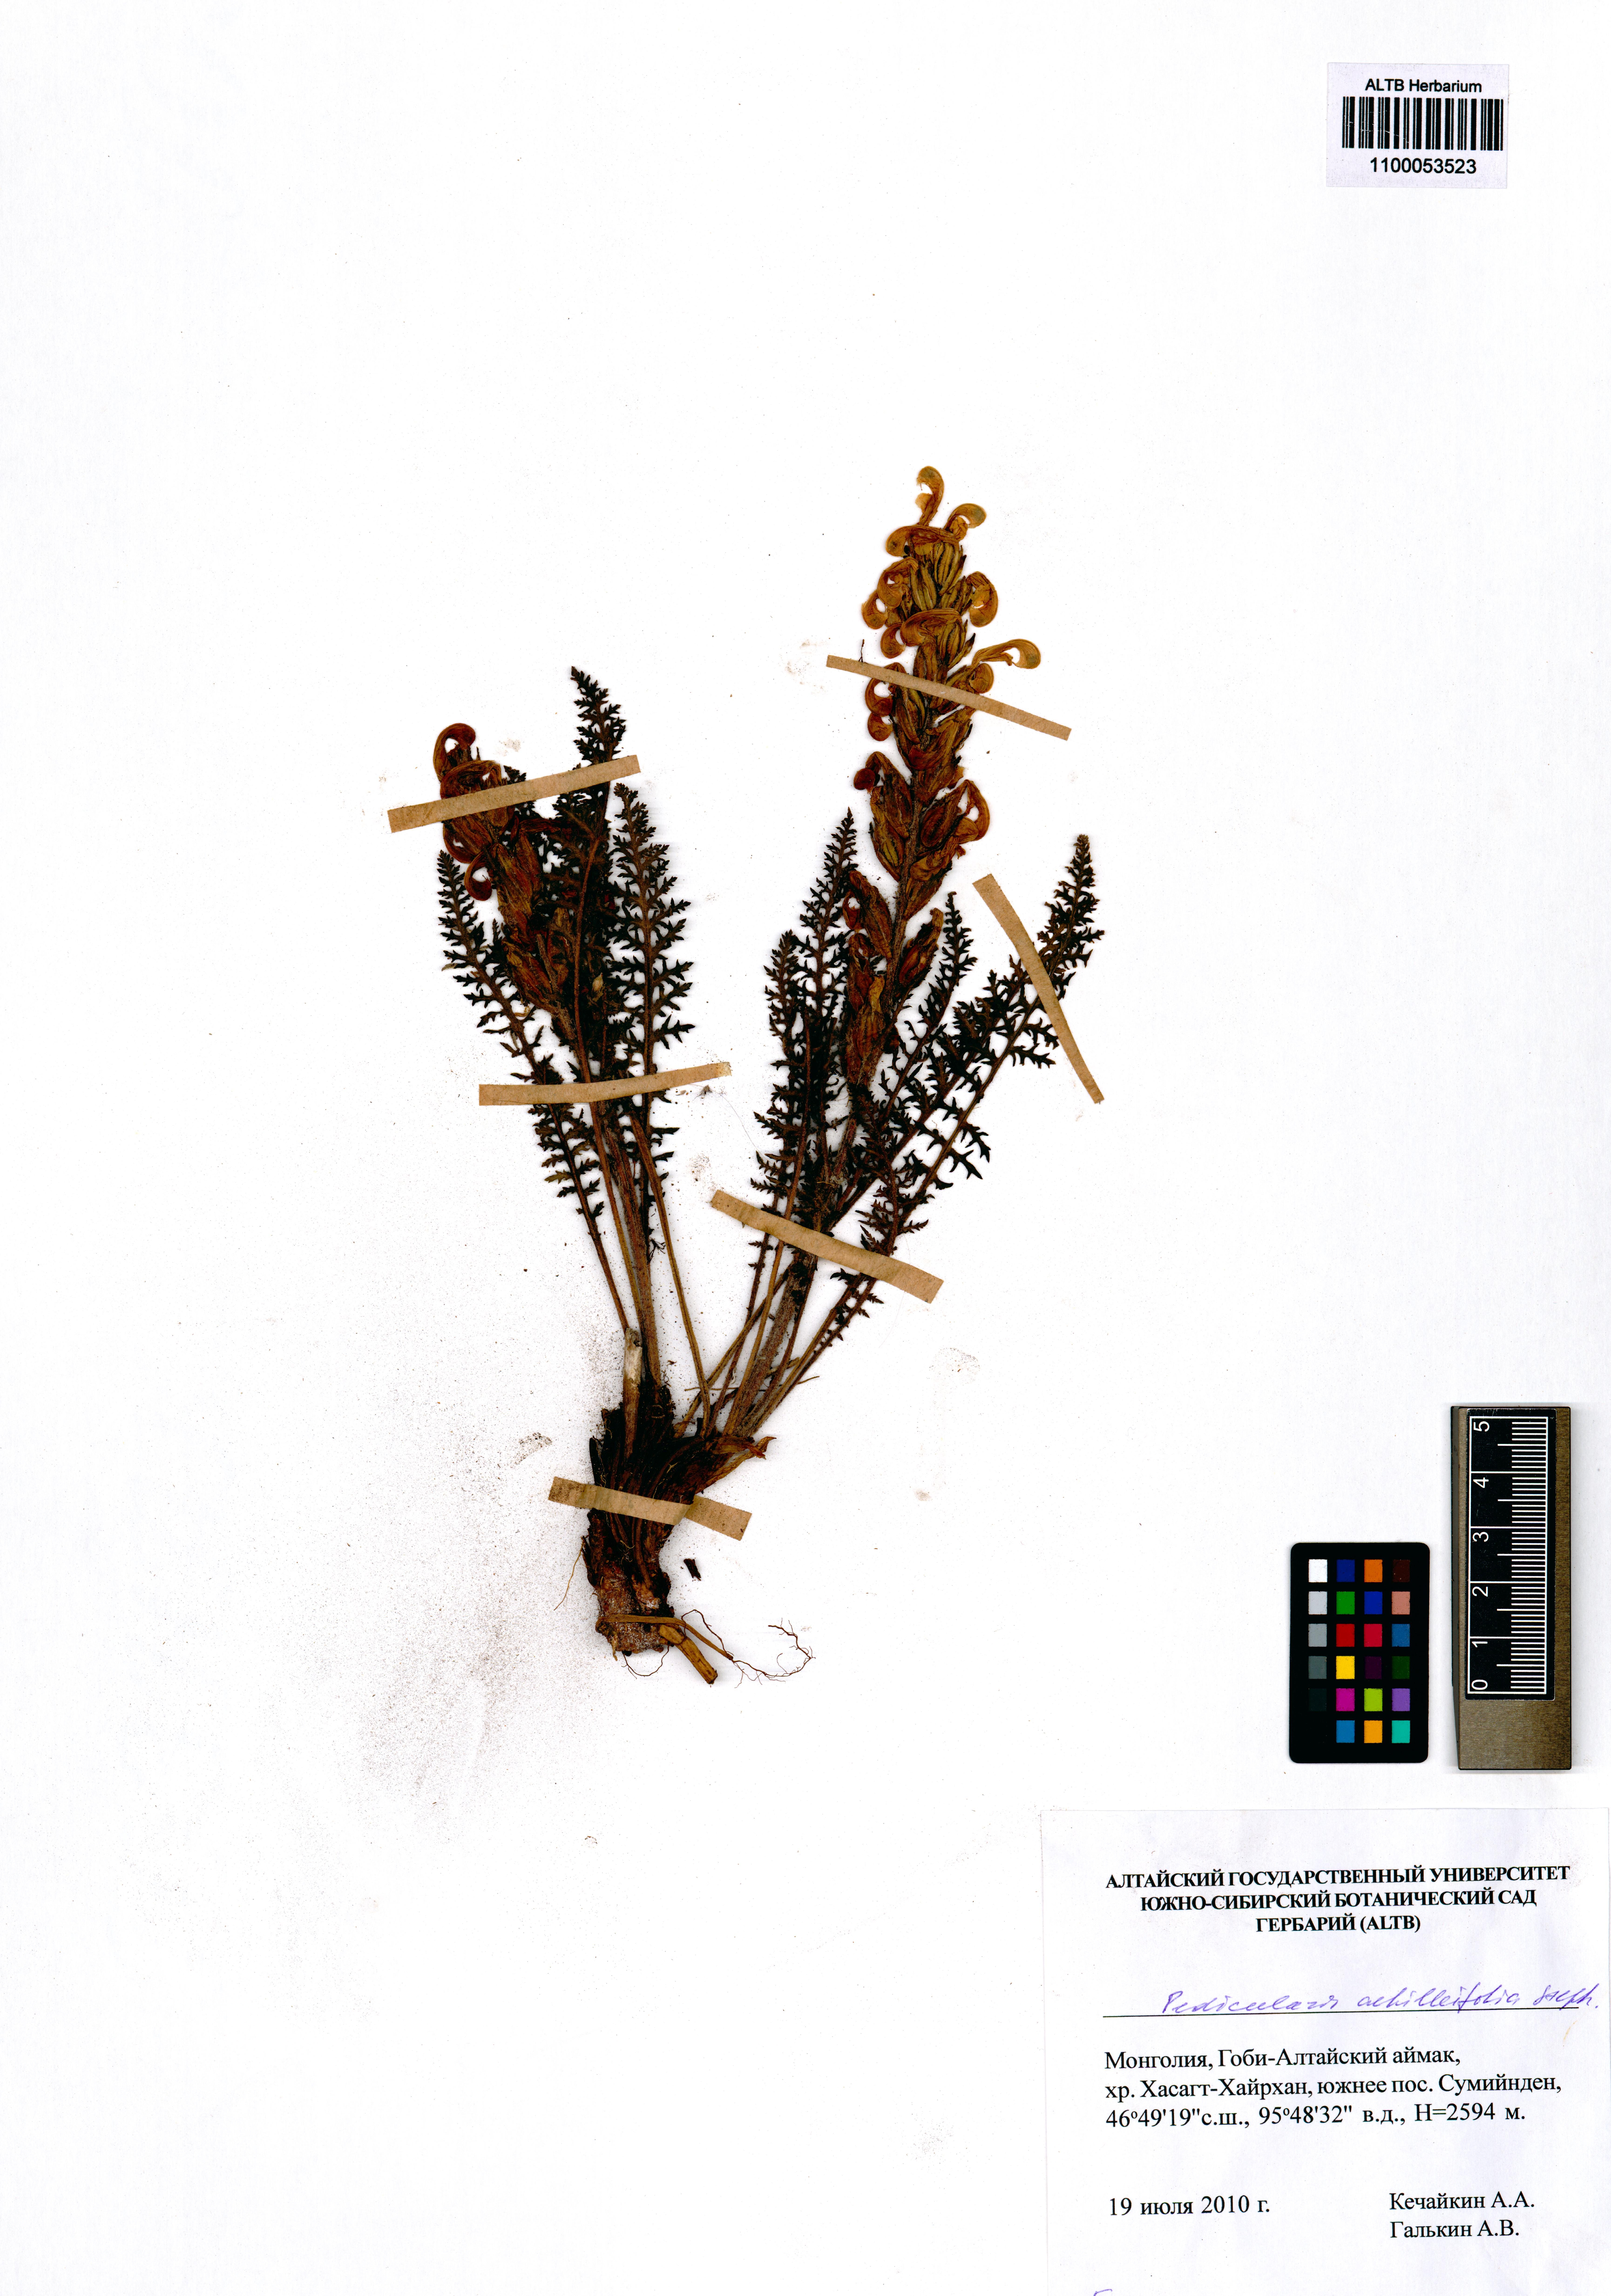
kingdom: Plantae
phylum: Tracheophyta
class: Magnoliopsida
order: Lamiales
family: Orobanchaceae
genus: Pedicularis
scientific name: Pedicularis achilleifolia
